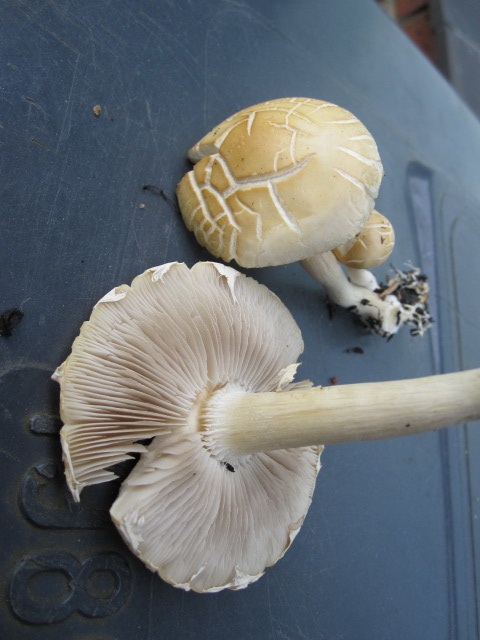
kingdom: Fungi
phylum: Basidiomycota
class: Agaricomycetes
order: Agaricales
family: Strophariaceae
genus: Agrocybe
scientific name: Agrocybe dura
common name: fastkødet agerhat
